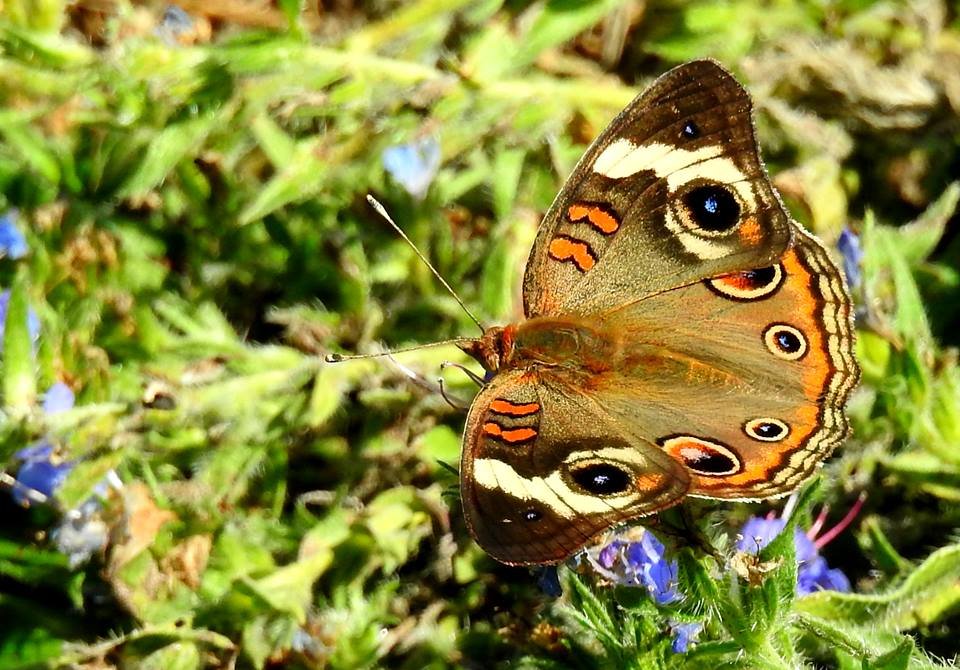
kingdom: Animalia
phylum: Arthropoda
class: Insecta
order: Lepidoptera
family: Nymphalidae
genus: Junonia
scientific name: Junonia coenia
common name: Common Buckeye
